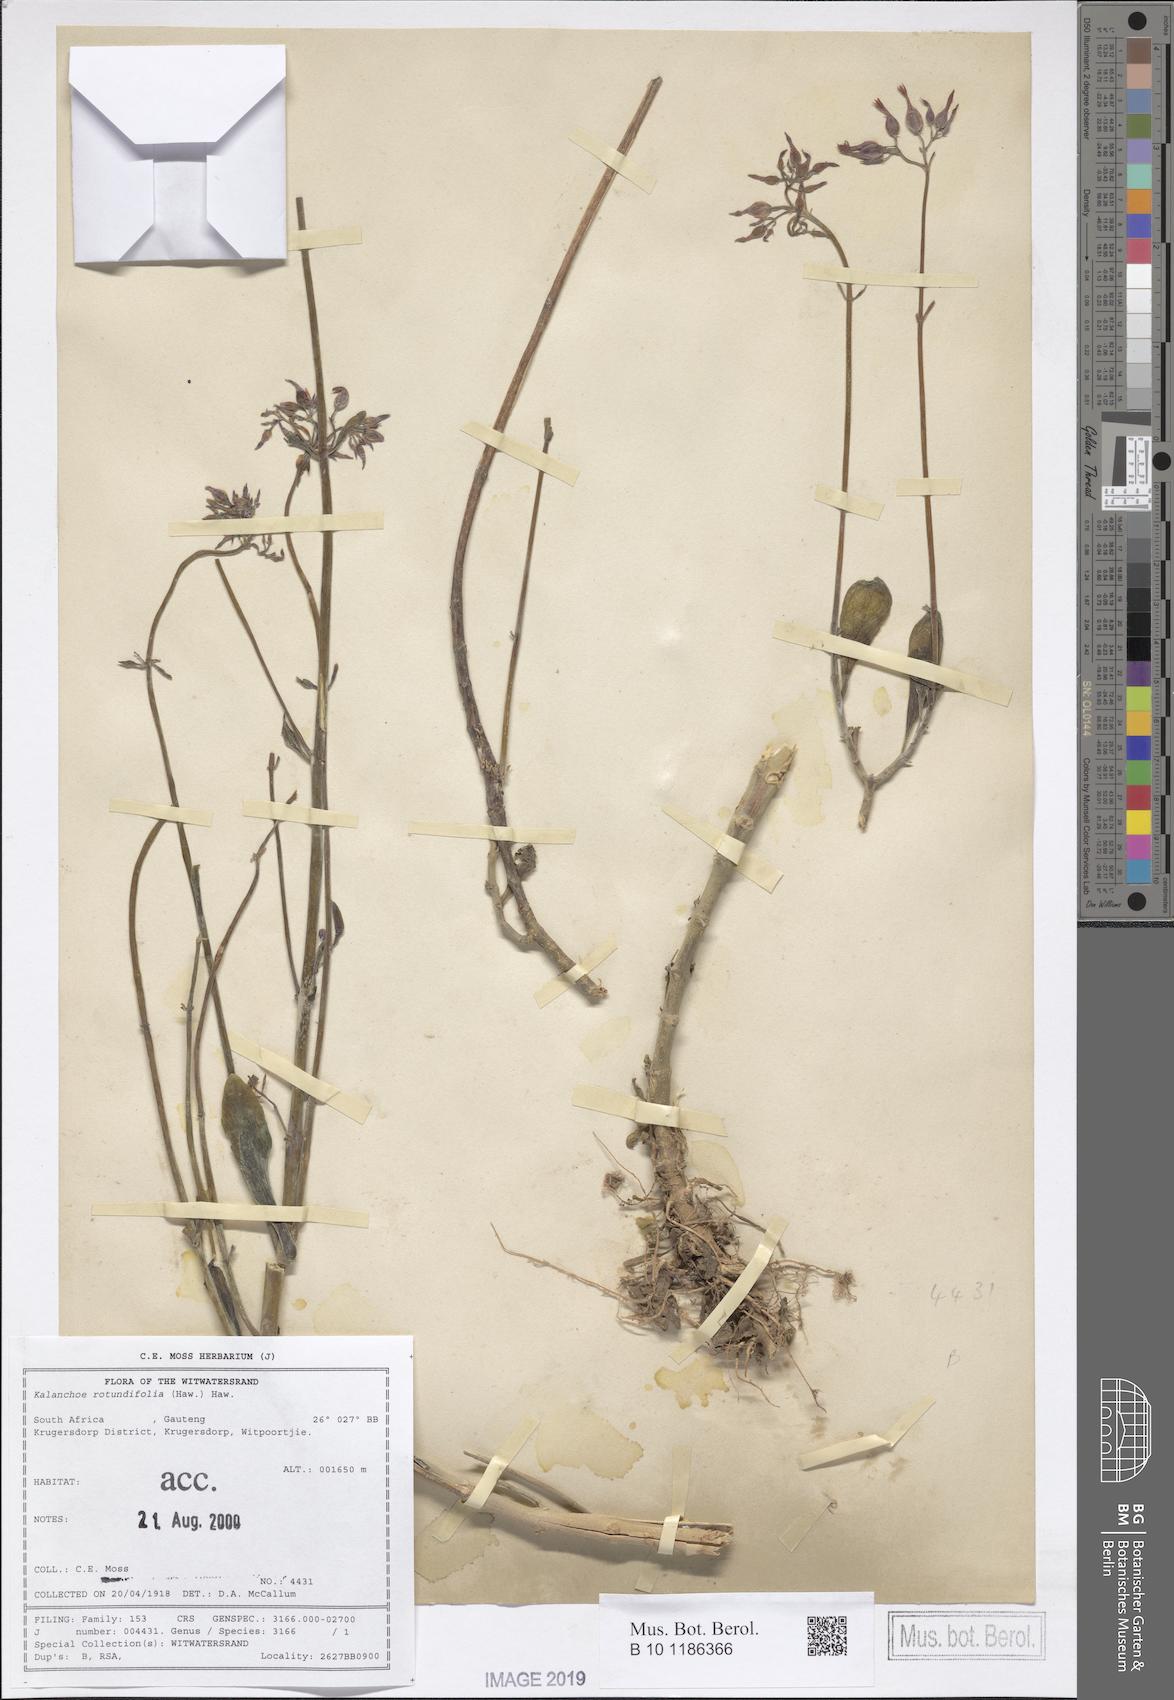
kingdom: Plantae
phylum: Tracheophyta
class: Magnoliopsida
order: Saxifragales
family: Crassulaceae
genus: Kalanchoe
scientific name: Kalanchoe rotundifolia
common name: Common kalanchoe
